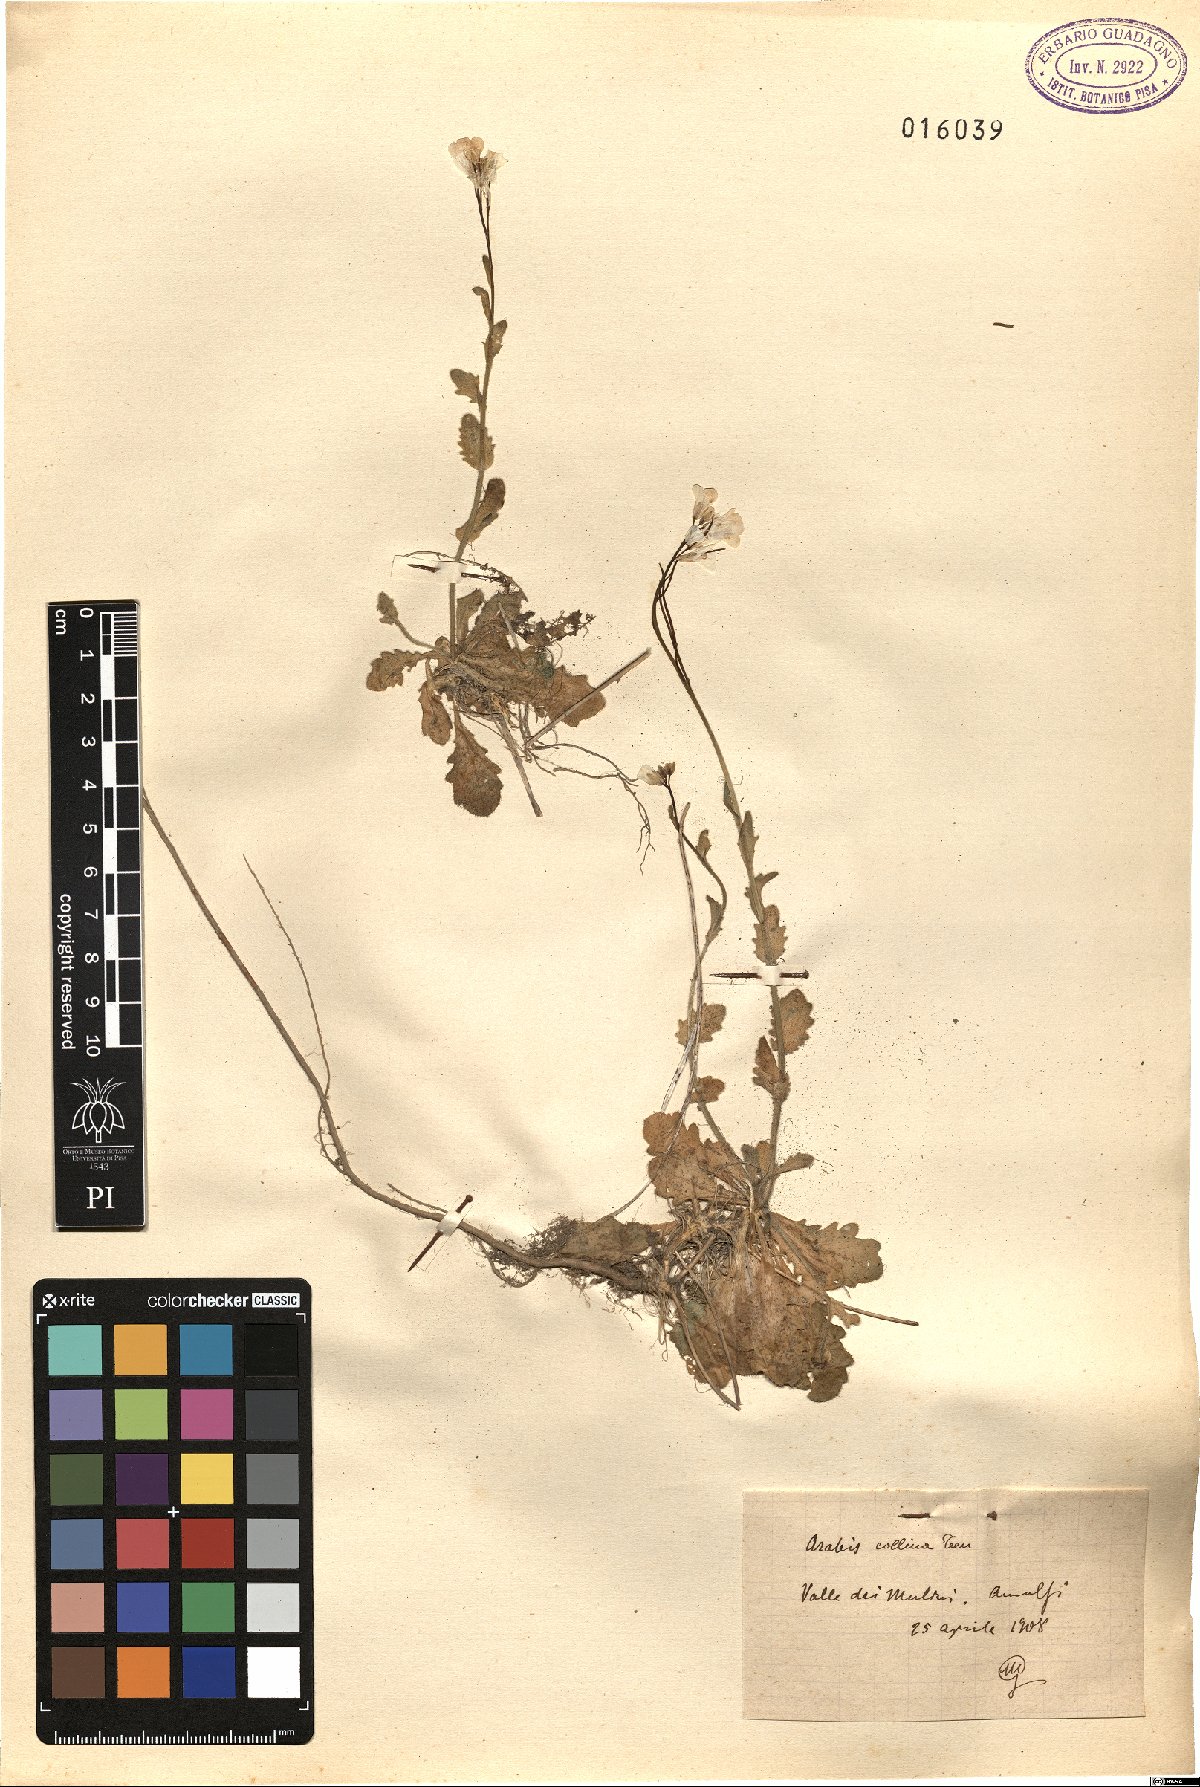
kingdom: Plantae
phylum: Tracheophyta
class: Magnoliopsida
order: Brassicales
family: Brassicaceae
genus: Arabis
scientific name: Arabis collina
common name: Rosy cress
